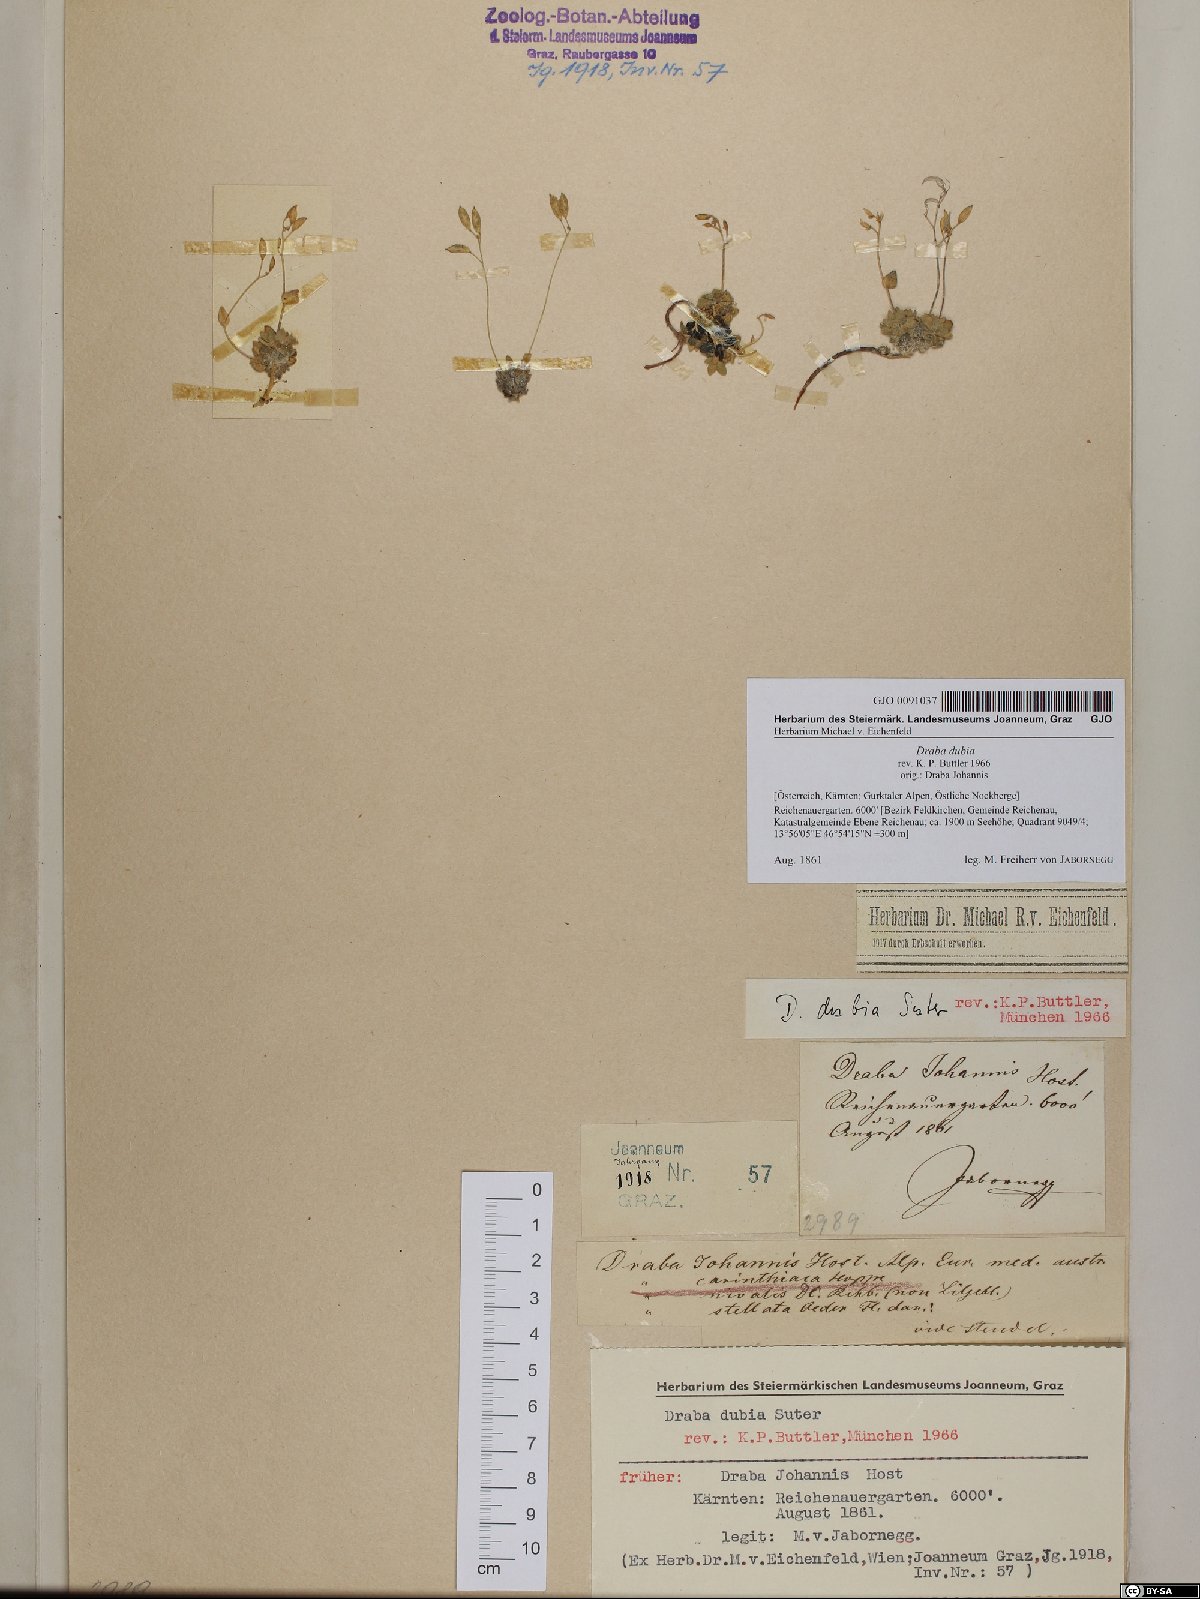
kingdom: Plantae
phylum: Tracheophyta
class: Magnoliopsida
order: Brassicales
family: Brassicaceae
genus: Draba
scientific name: Draba dubia
